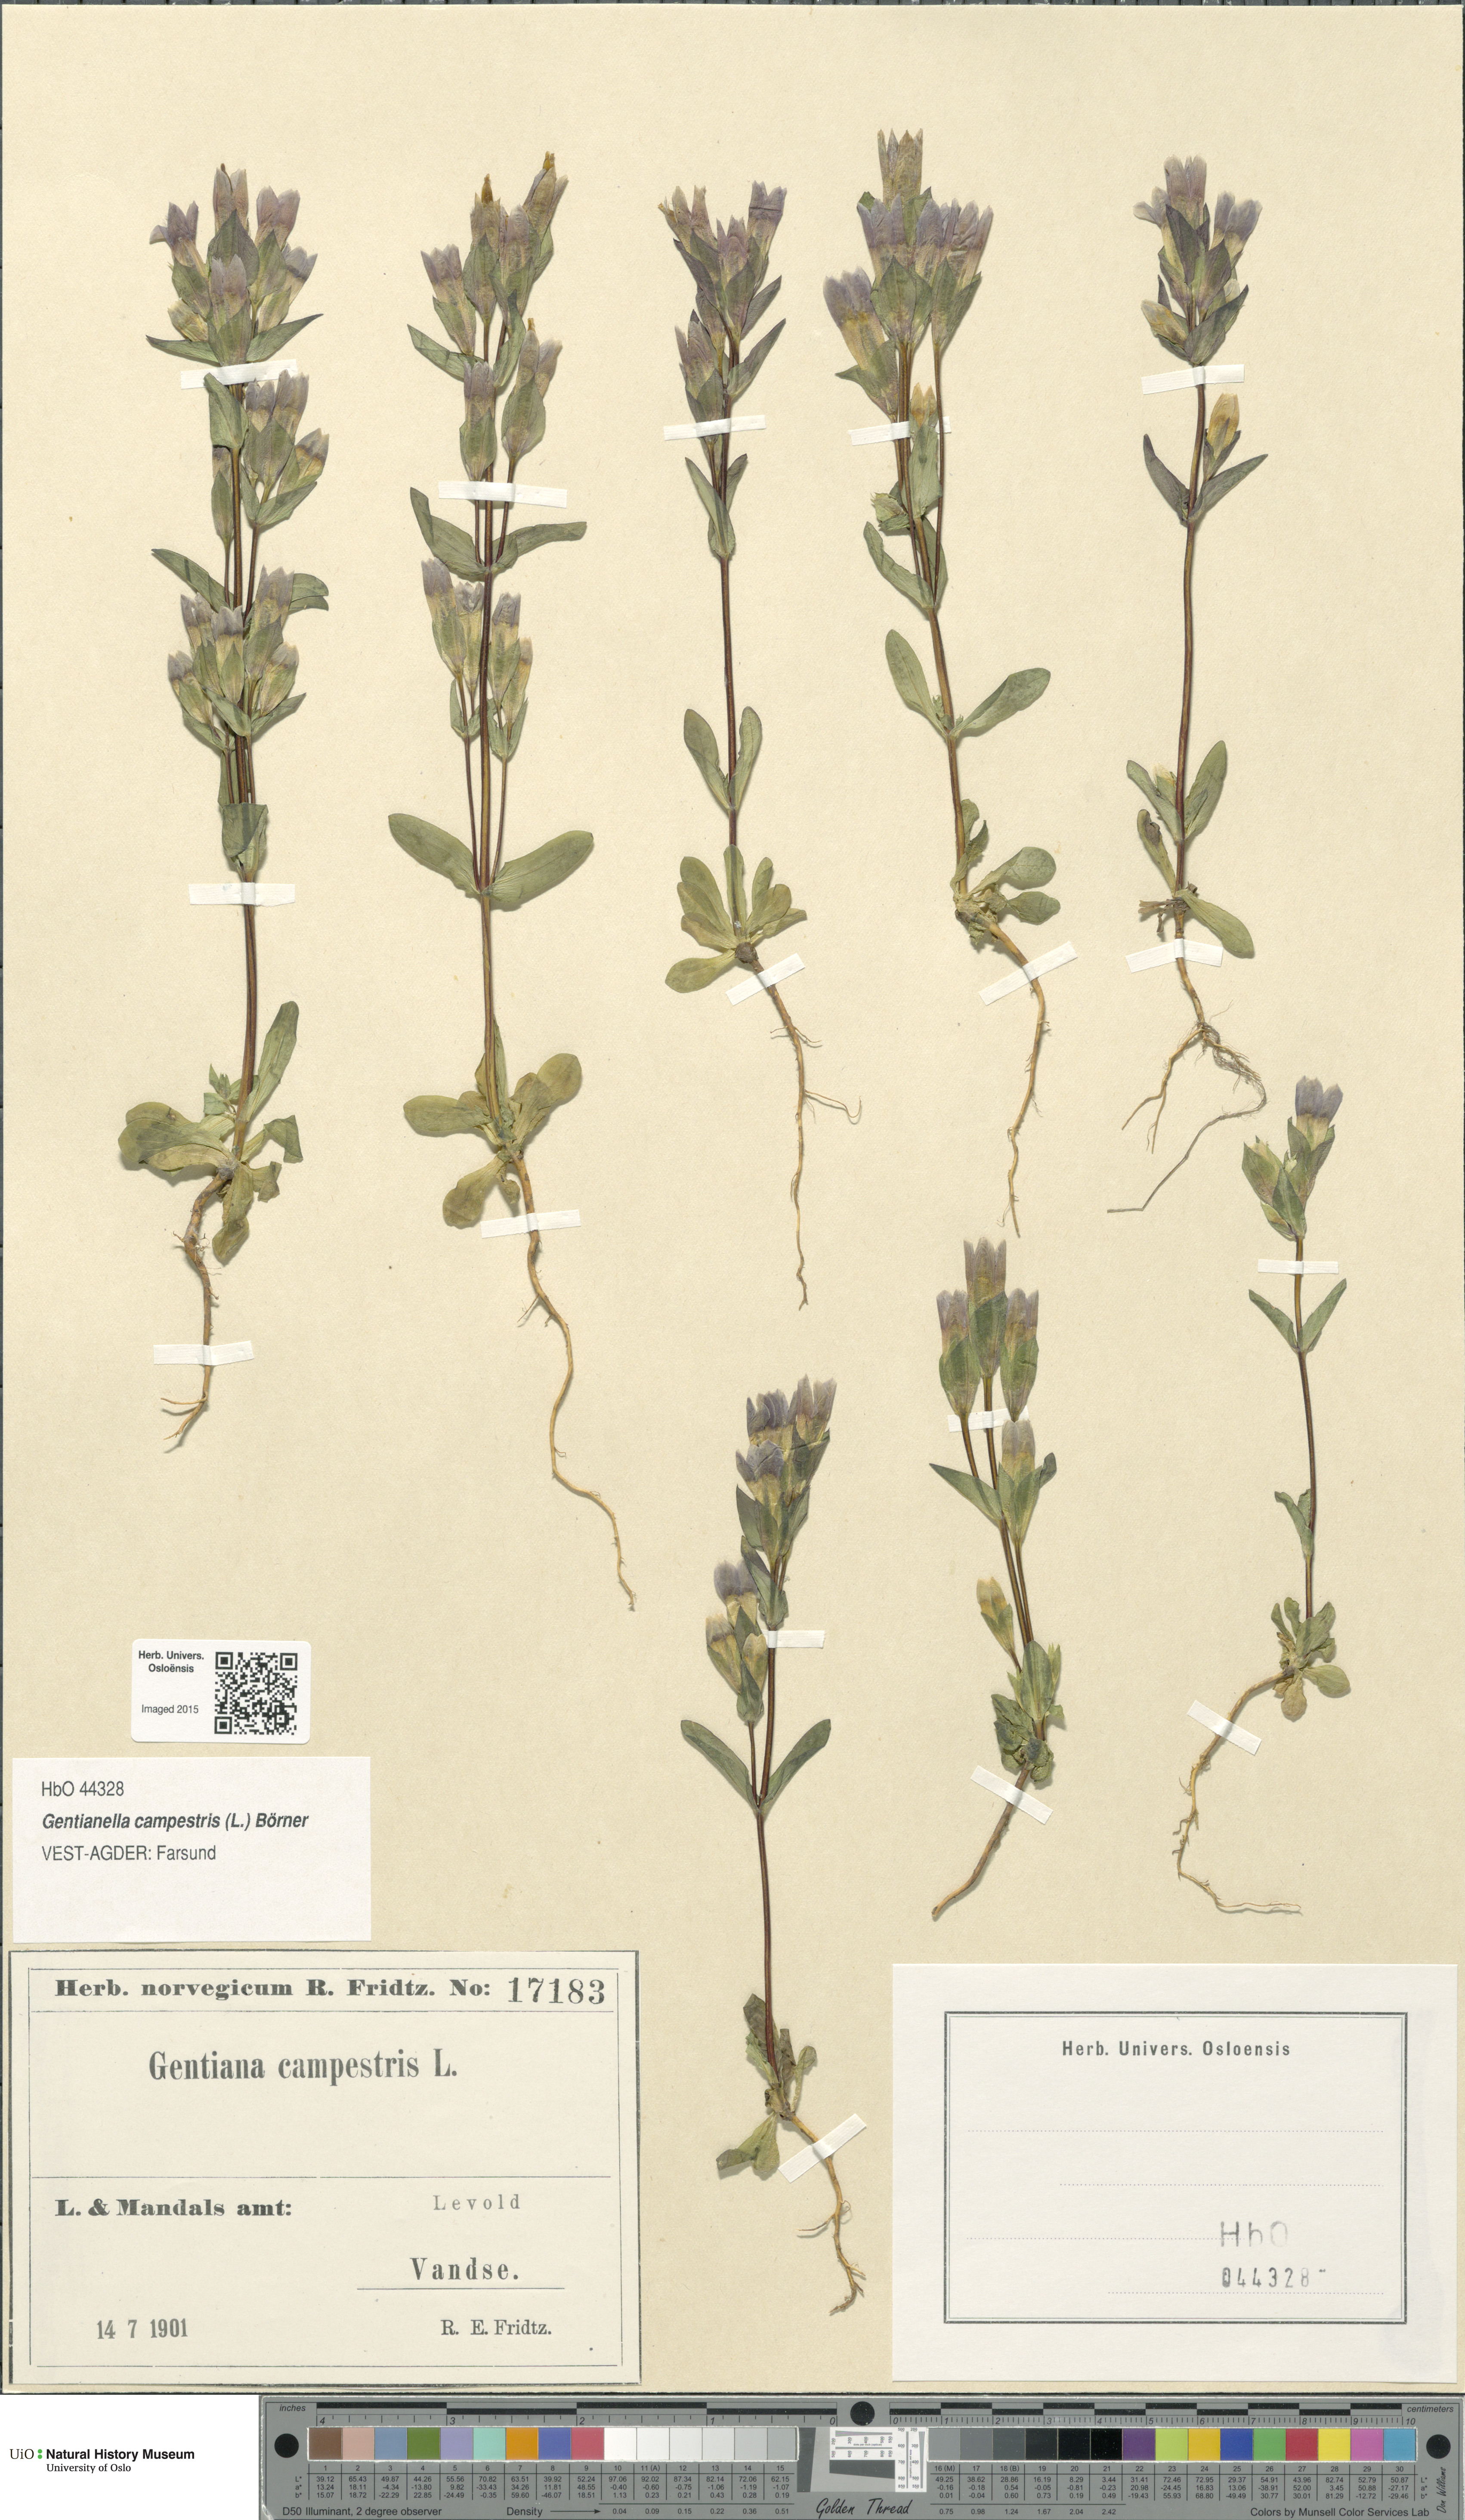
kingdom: Plantae
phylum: Tracheophyta
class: Magnoliopsida
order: Gentianales
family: Gentianaceae
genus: Gentianella
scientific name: Gentianella campestris
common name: Field gentian
